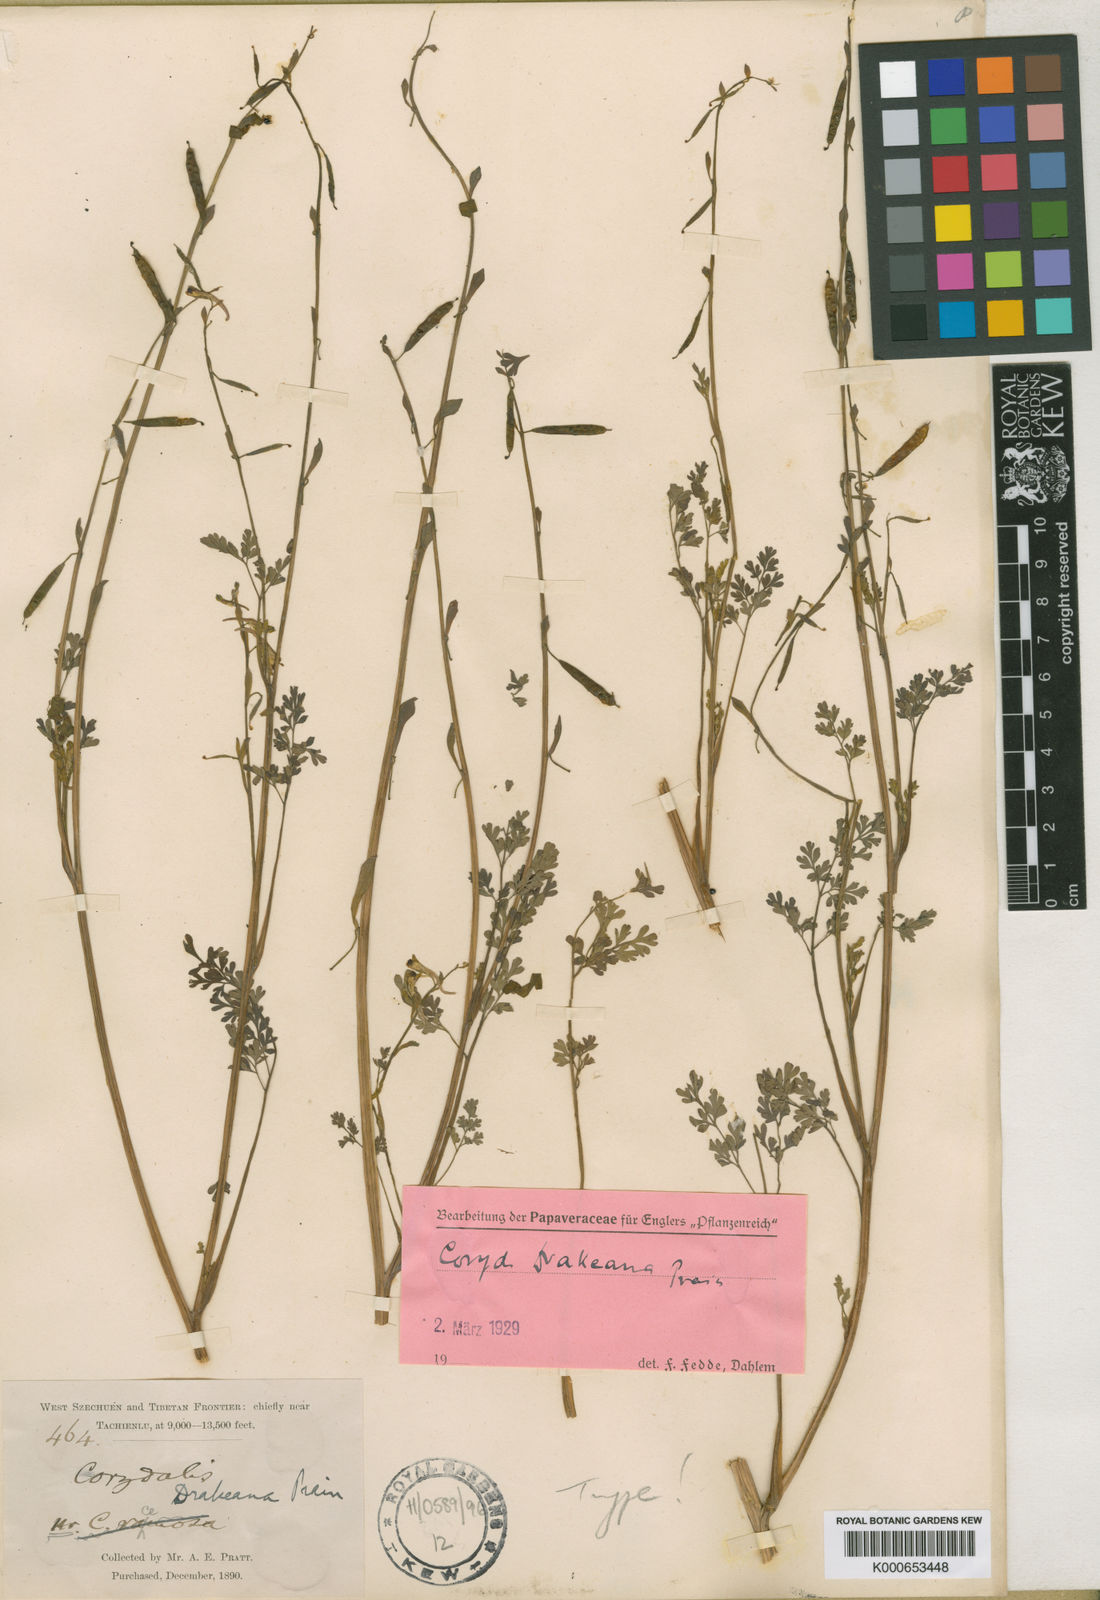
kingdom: Plantae
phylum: Tracheophyta
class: Magnoliopsida
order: Ranunculales
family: Papaveraceae
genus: Corydalis
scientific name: Corydalis drakeana
